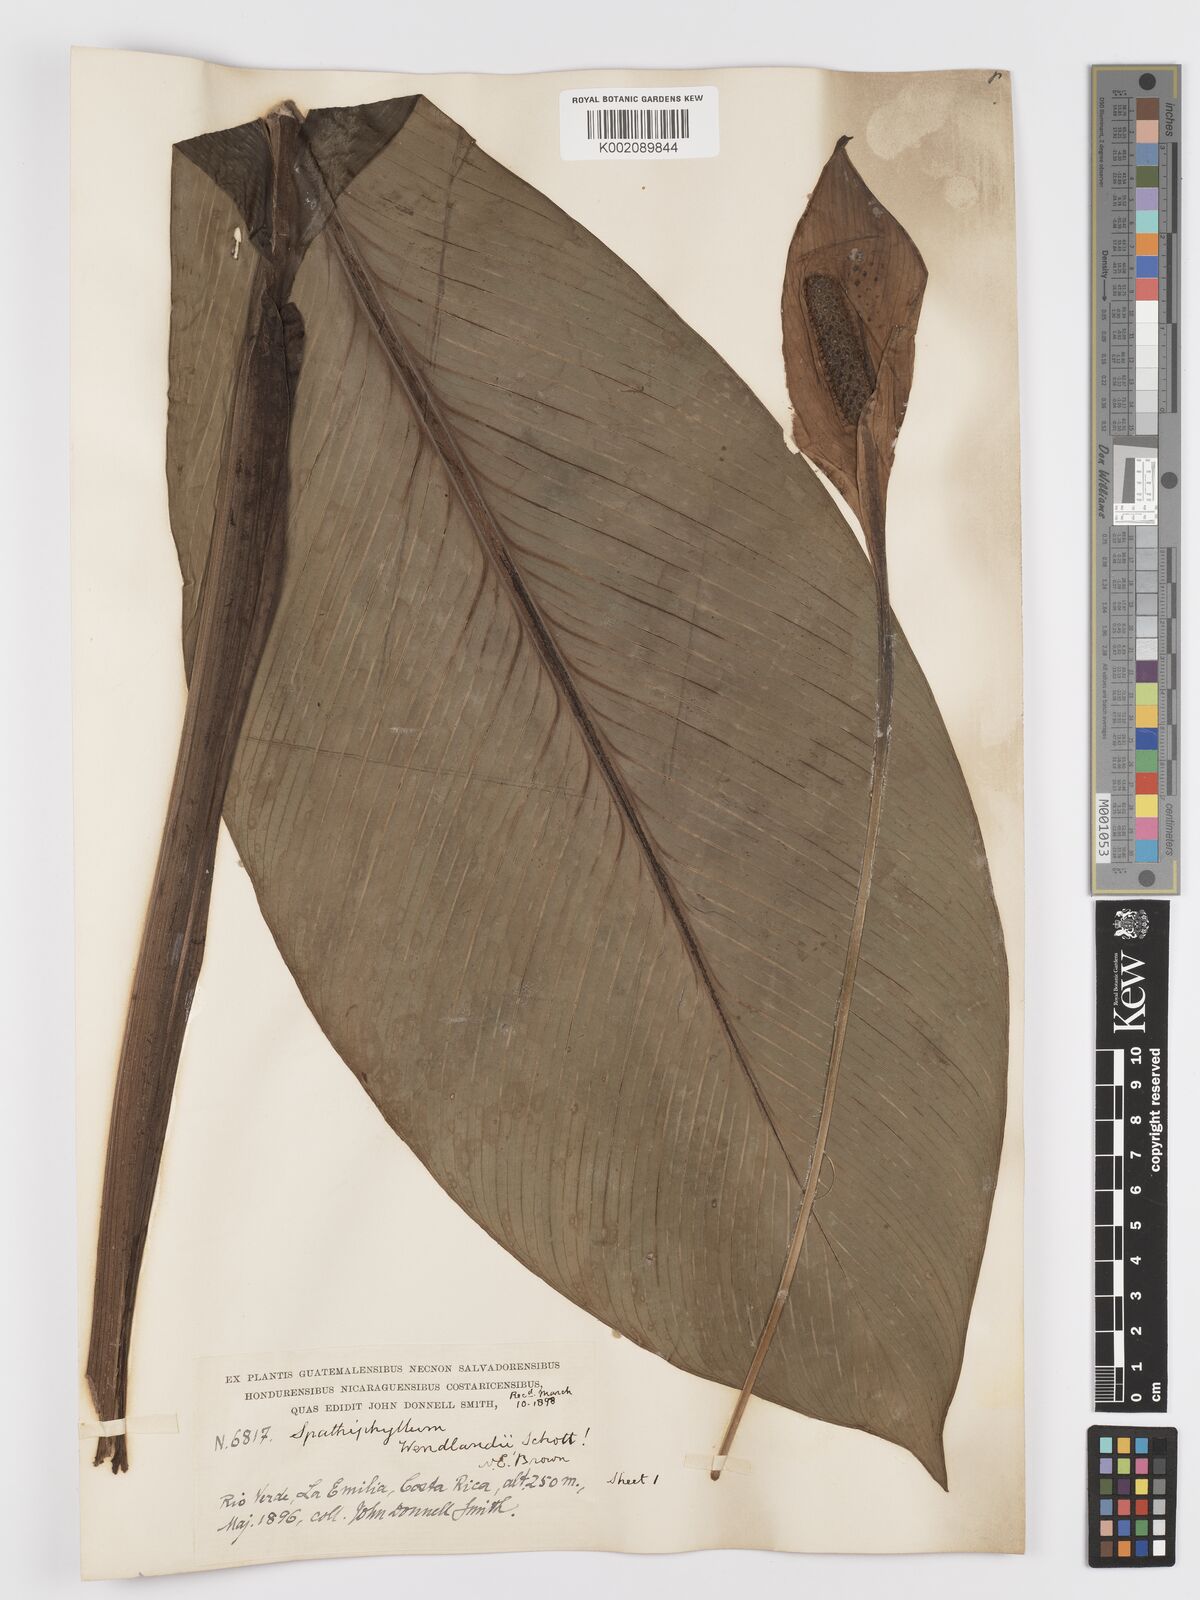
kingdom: Plantae
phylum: Tracheophyta
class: Liliopsida
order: Alismatales
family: Araceae
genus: Spathiphyllum
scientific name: Spathiphyllum wendlandii
